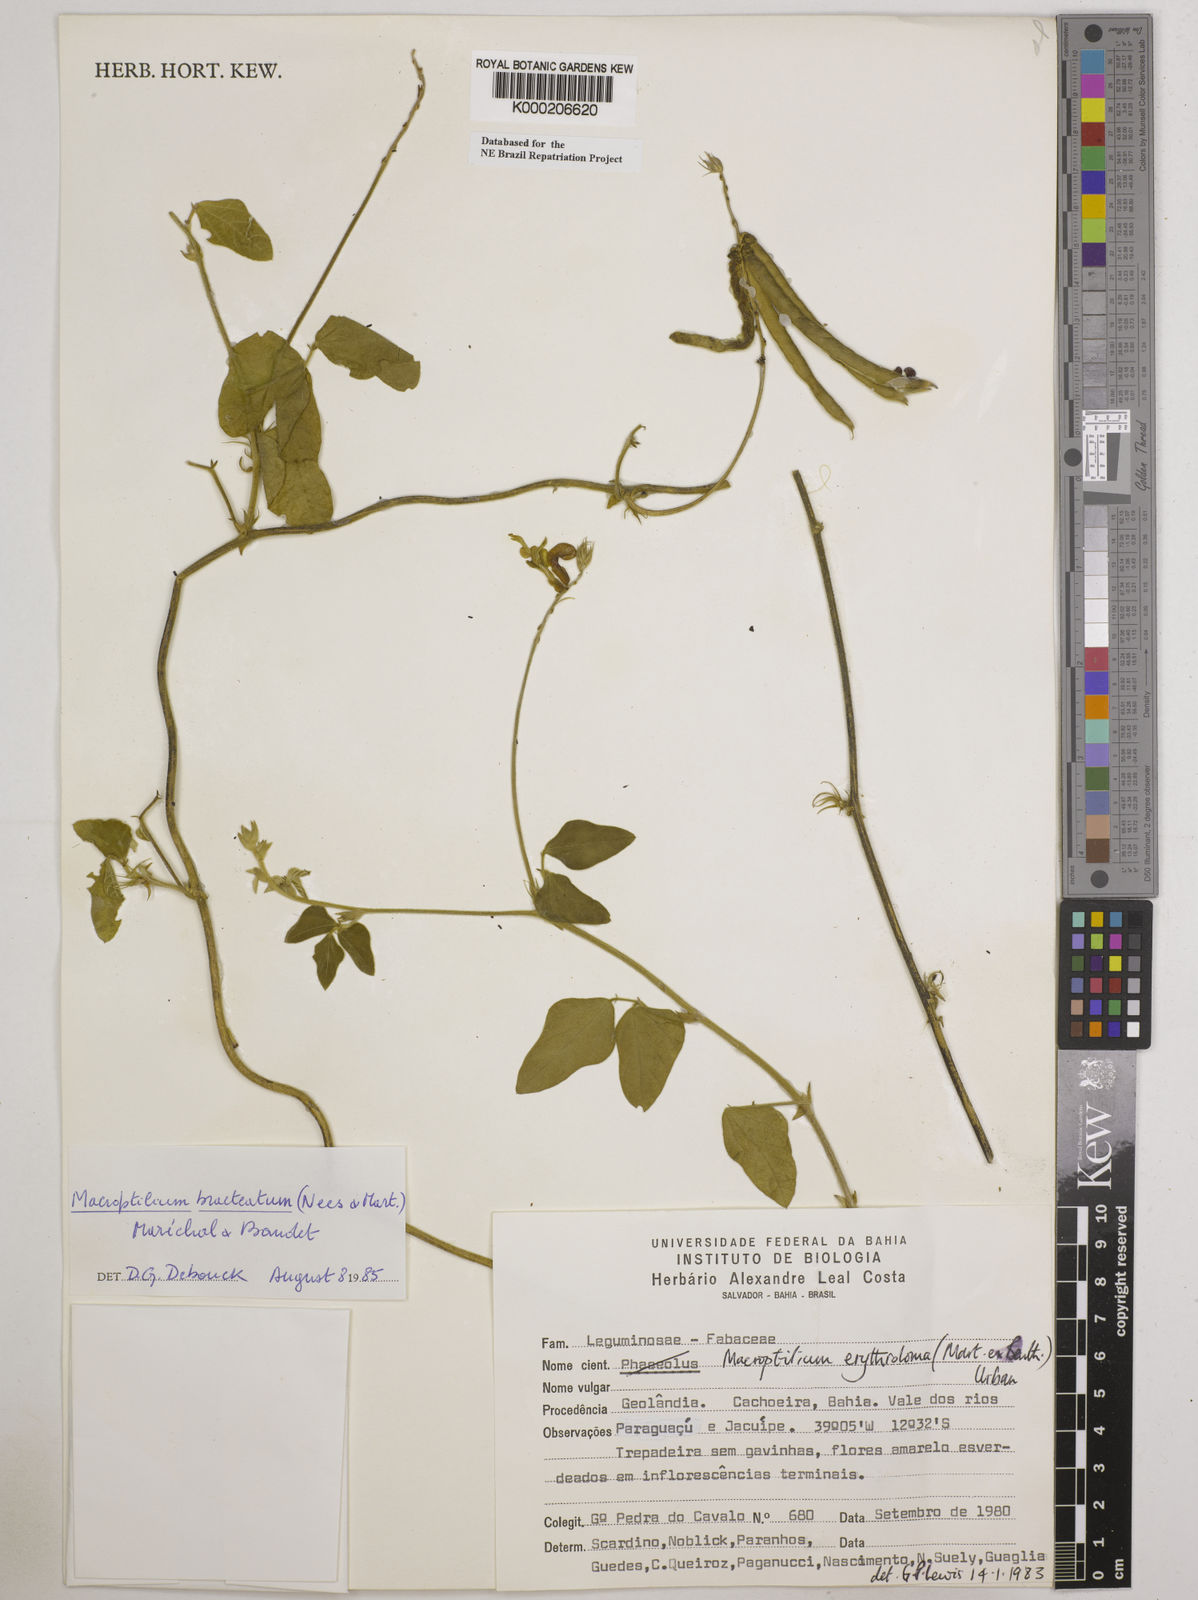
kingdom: Plantae
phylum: Tracheophyta
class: Magnoliopsida
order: Fabales
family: Fabaceae
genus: Macroptilium
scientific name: Macroptilium
